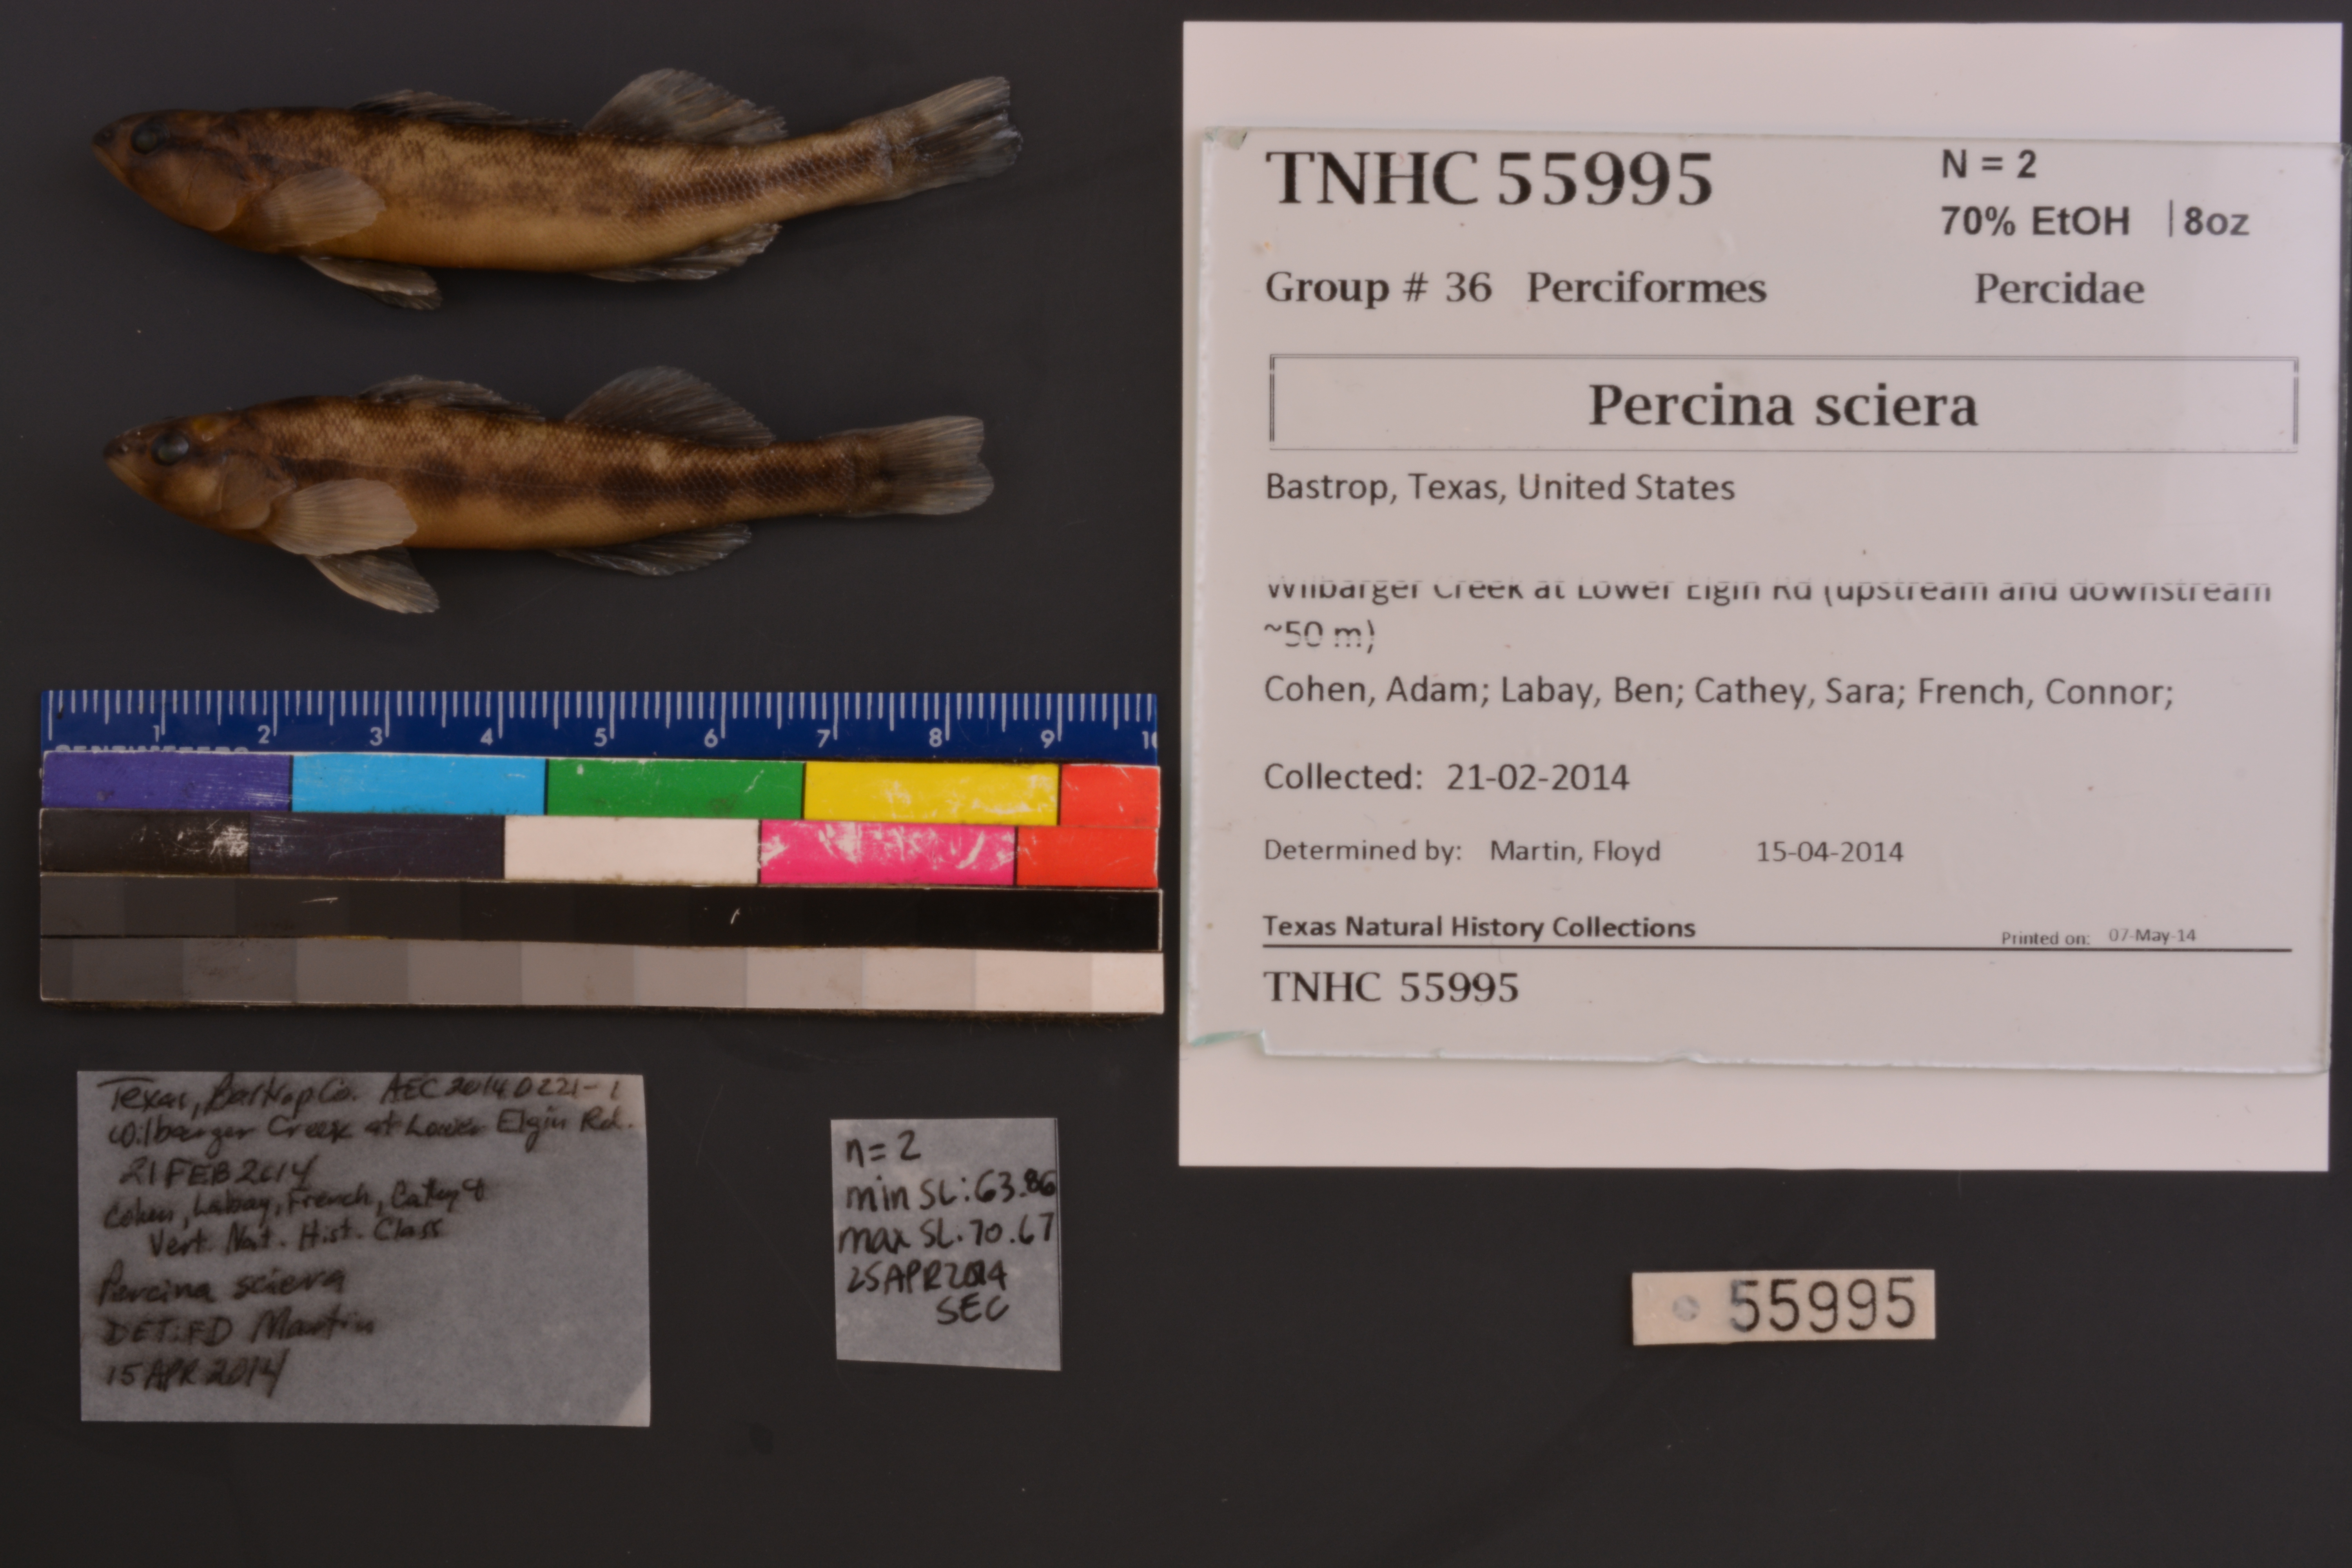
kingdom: Animalia
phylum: Chordata
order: Perciformes
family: Percidae
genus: Percina
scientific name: Percina sciera
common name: Dusky darter
